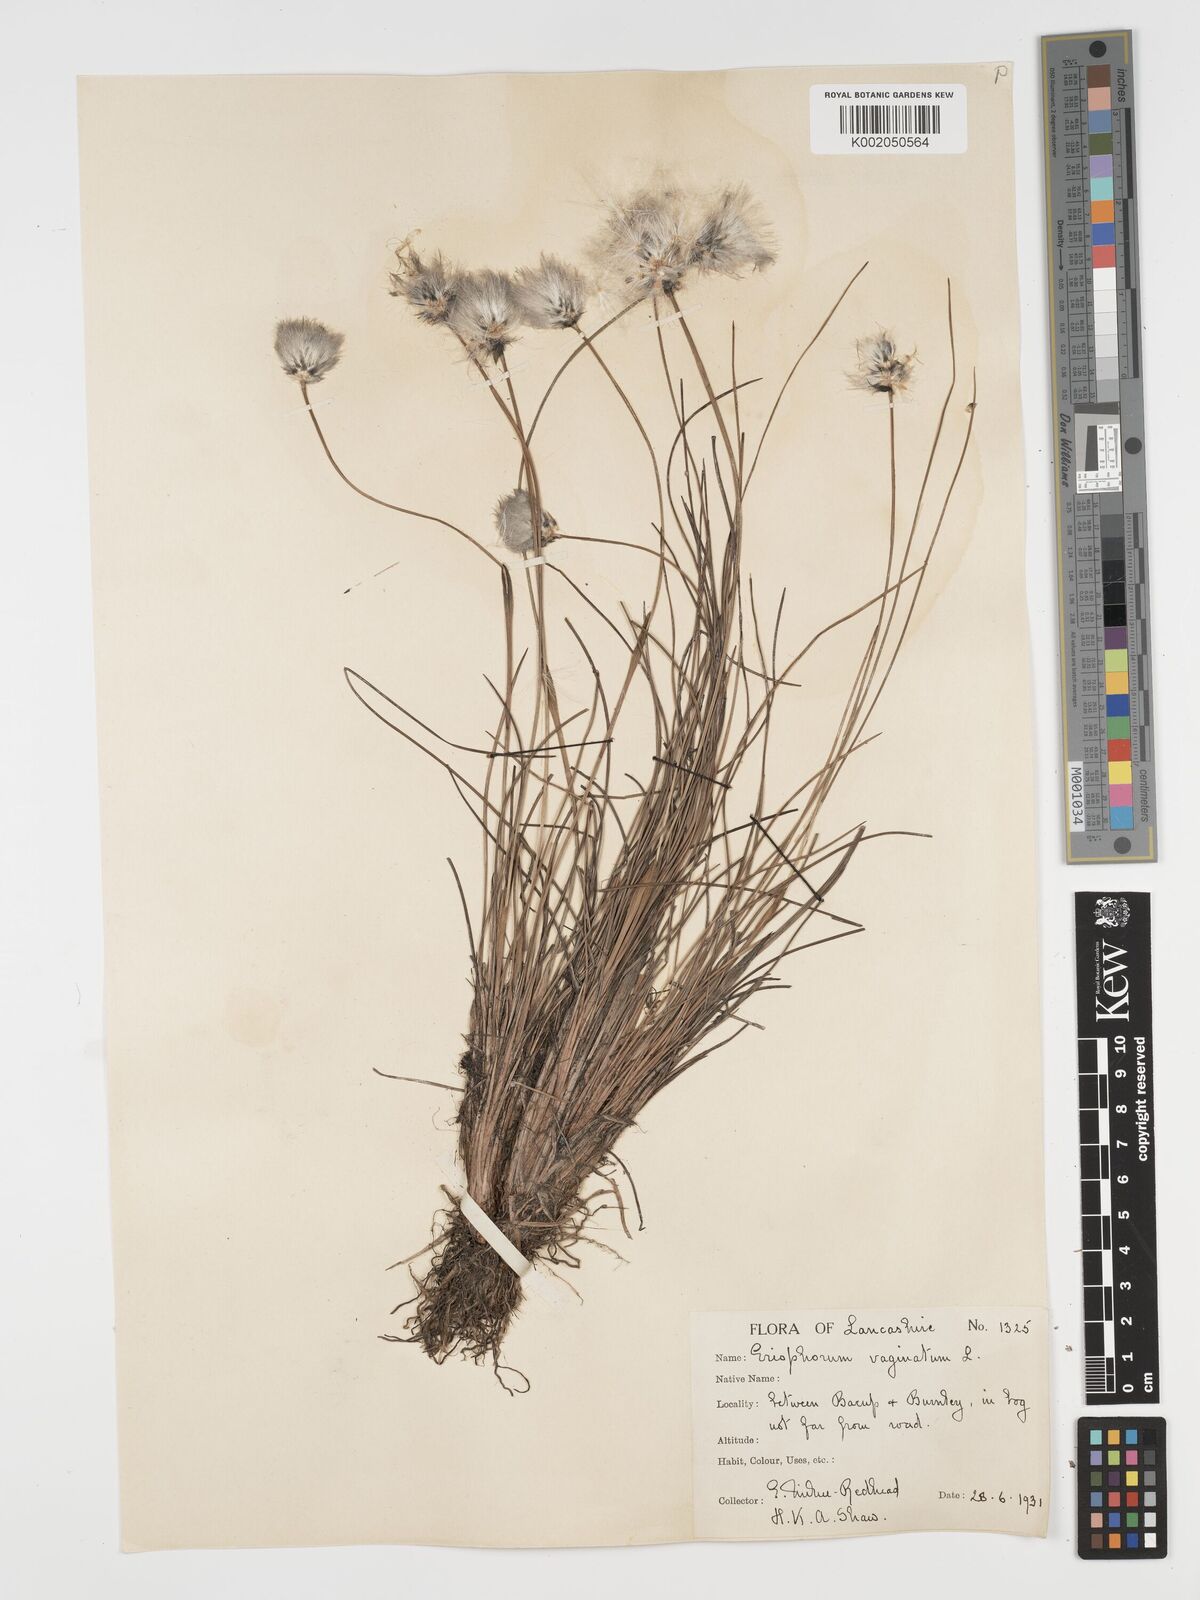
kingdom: Plantae
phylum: Tracheophyta
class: Liliopsida
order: Poales
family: Cyperaceae
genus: Eriophorum
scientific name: Eriophorum vaginatum
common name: Hare's-tail cottongrass
